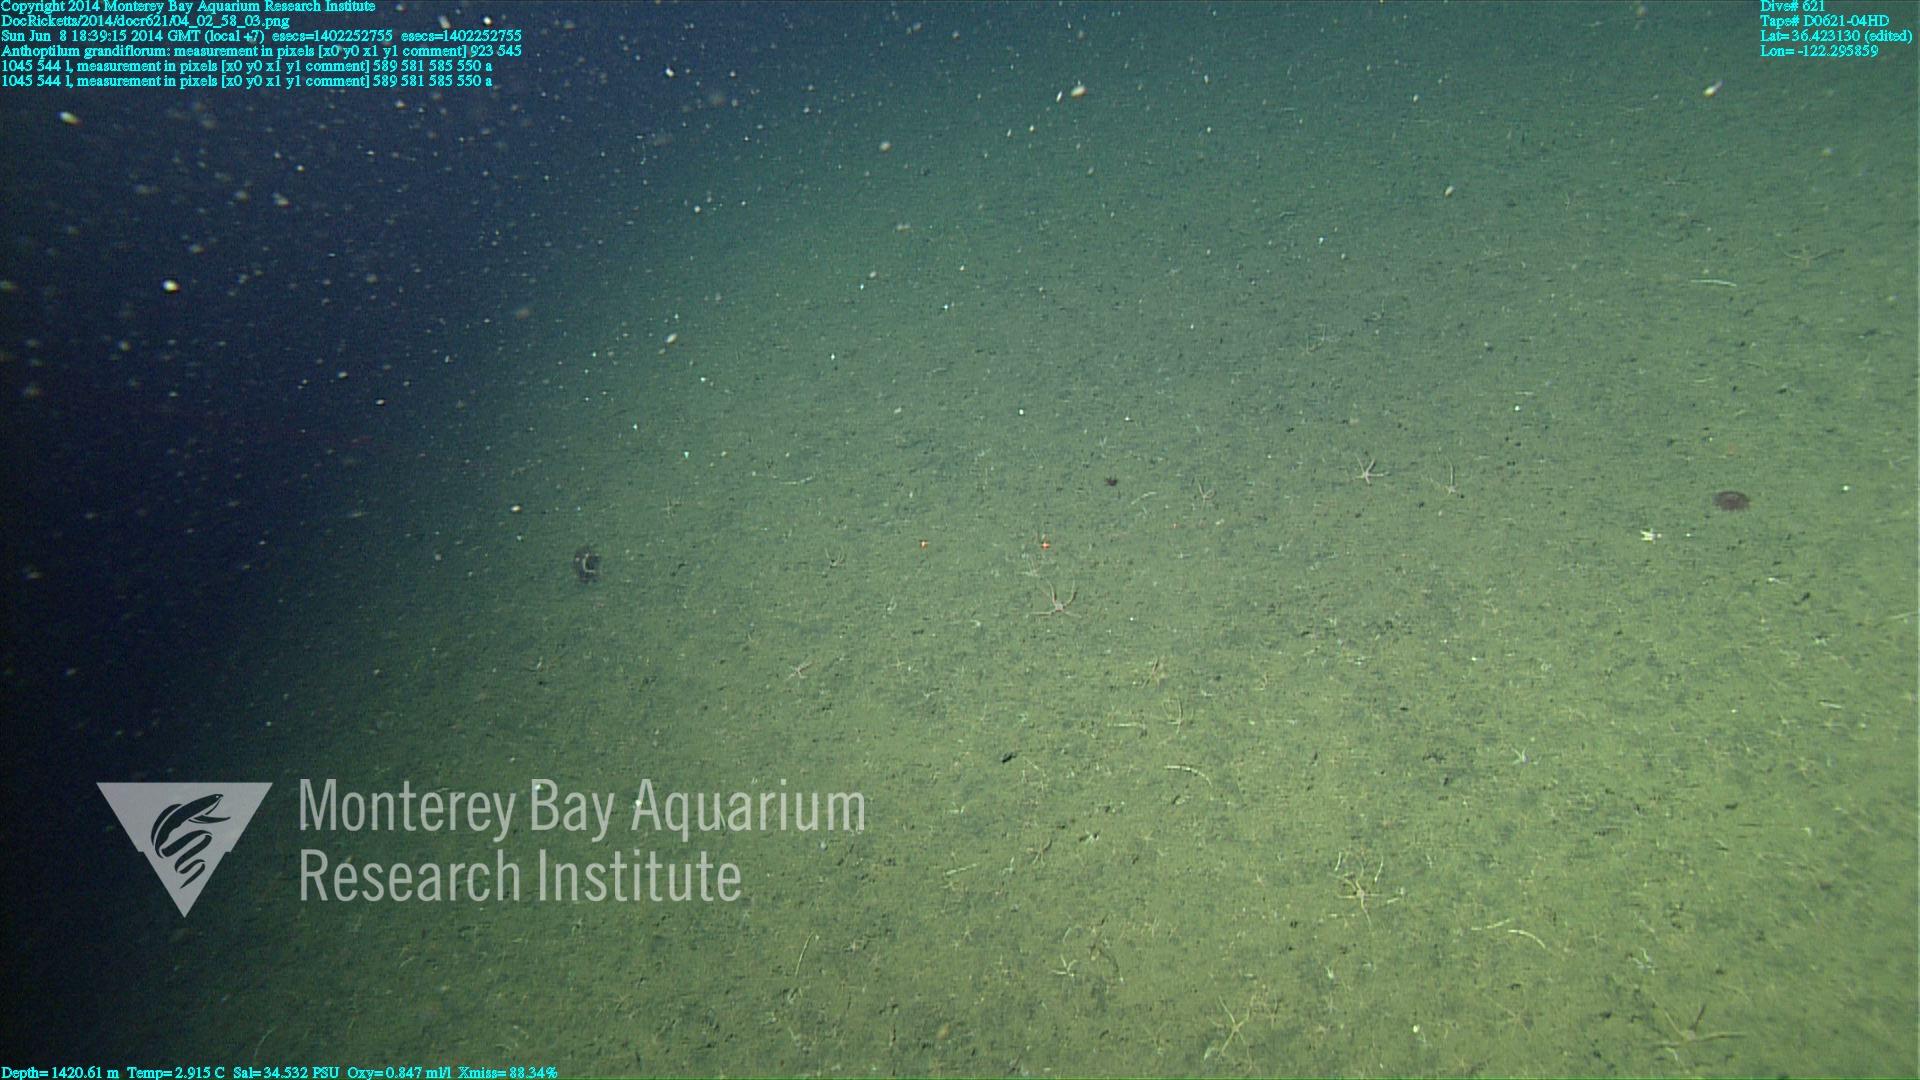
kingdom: Animalia
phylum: Cnidaria
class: Anthozoa
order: Scleralcyonacea
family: Anthoptilidae
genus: Anthoptilum
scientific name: Anthoptilum grandiflorum
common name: Full-flowered sea pen
